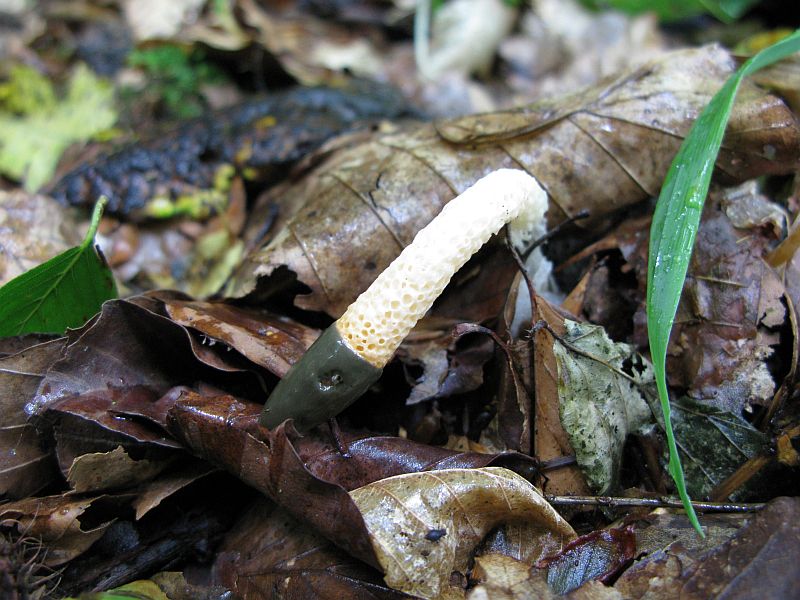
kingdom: Fungi
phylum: Basidiomycota
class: Agaricomycetes
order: Phallales
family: Phallaceae
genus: Mutinus
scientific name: Mutinus caninus
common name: hunde-stinksvamp
